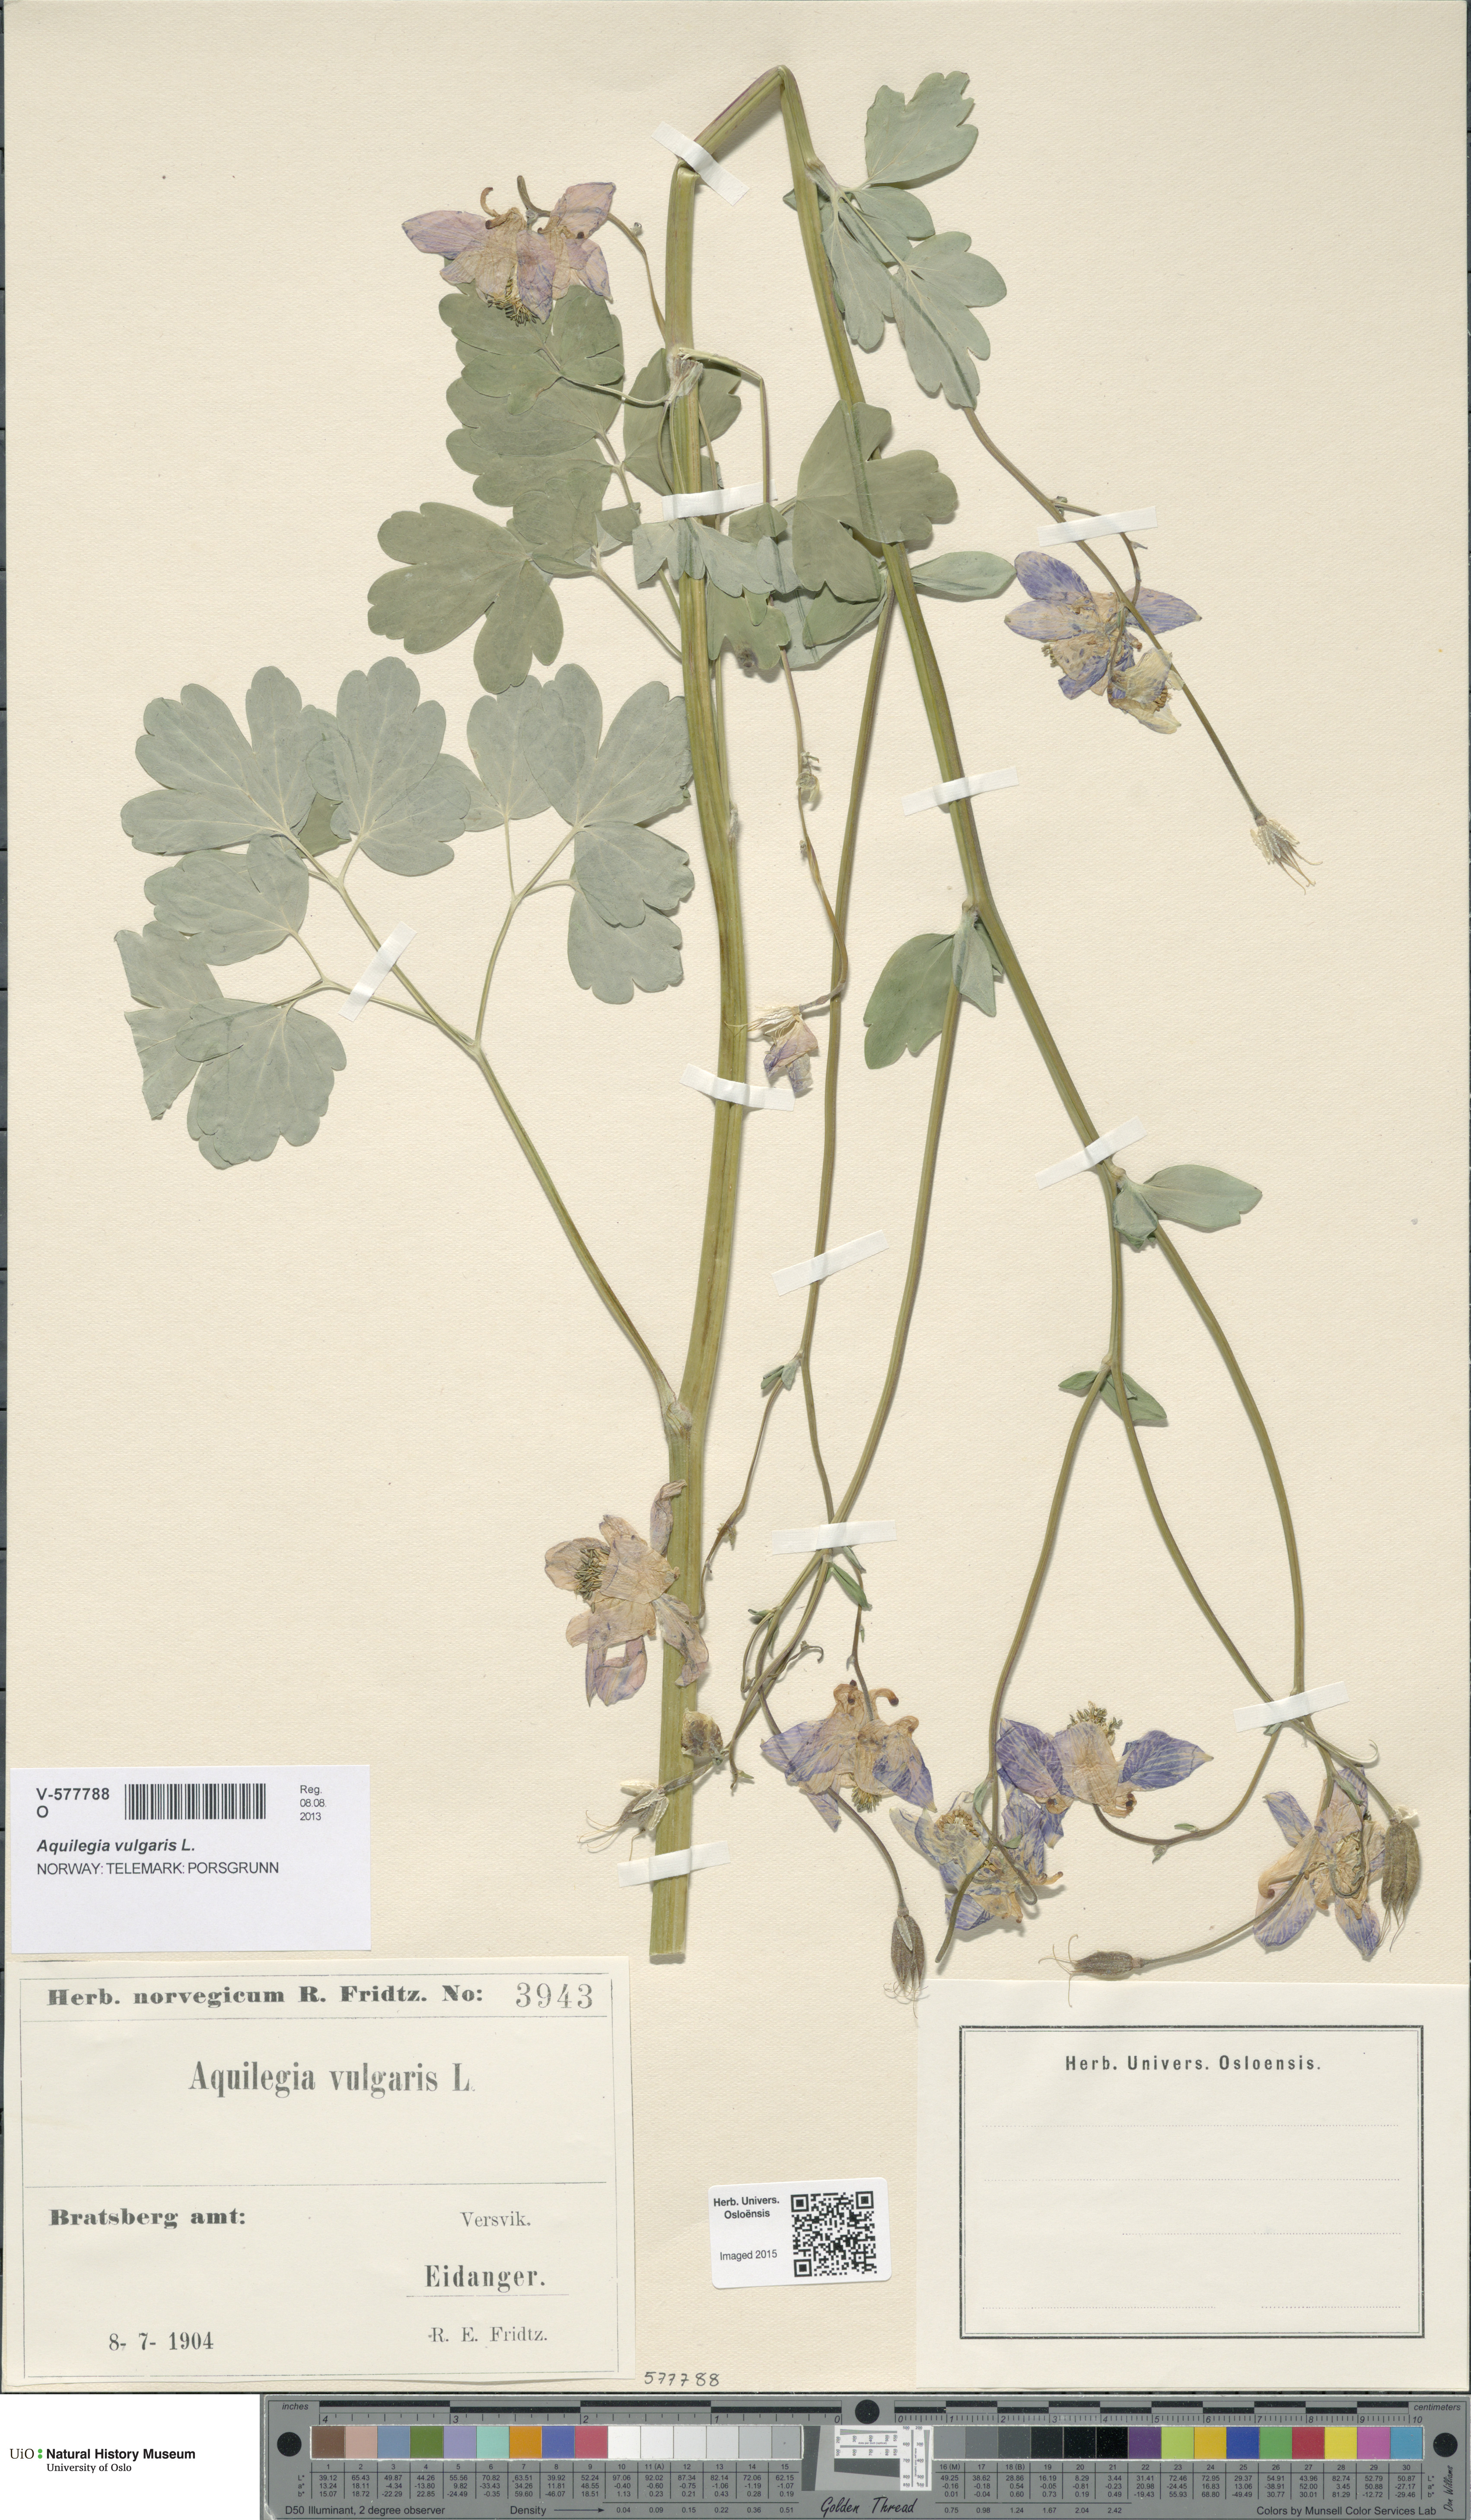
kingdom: Plantae
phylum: Tracheophyta
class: Magnoliopsida
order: Ranunculales
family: Ranunculaceae
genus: Aquilegia
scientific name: Aquilegia vulgaris
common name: Columbine
